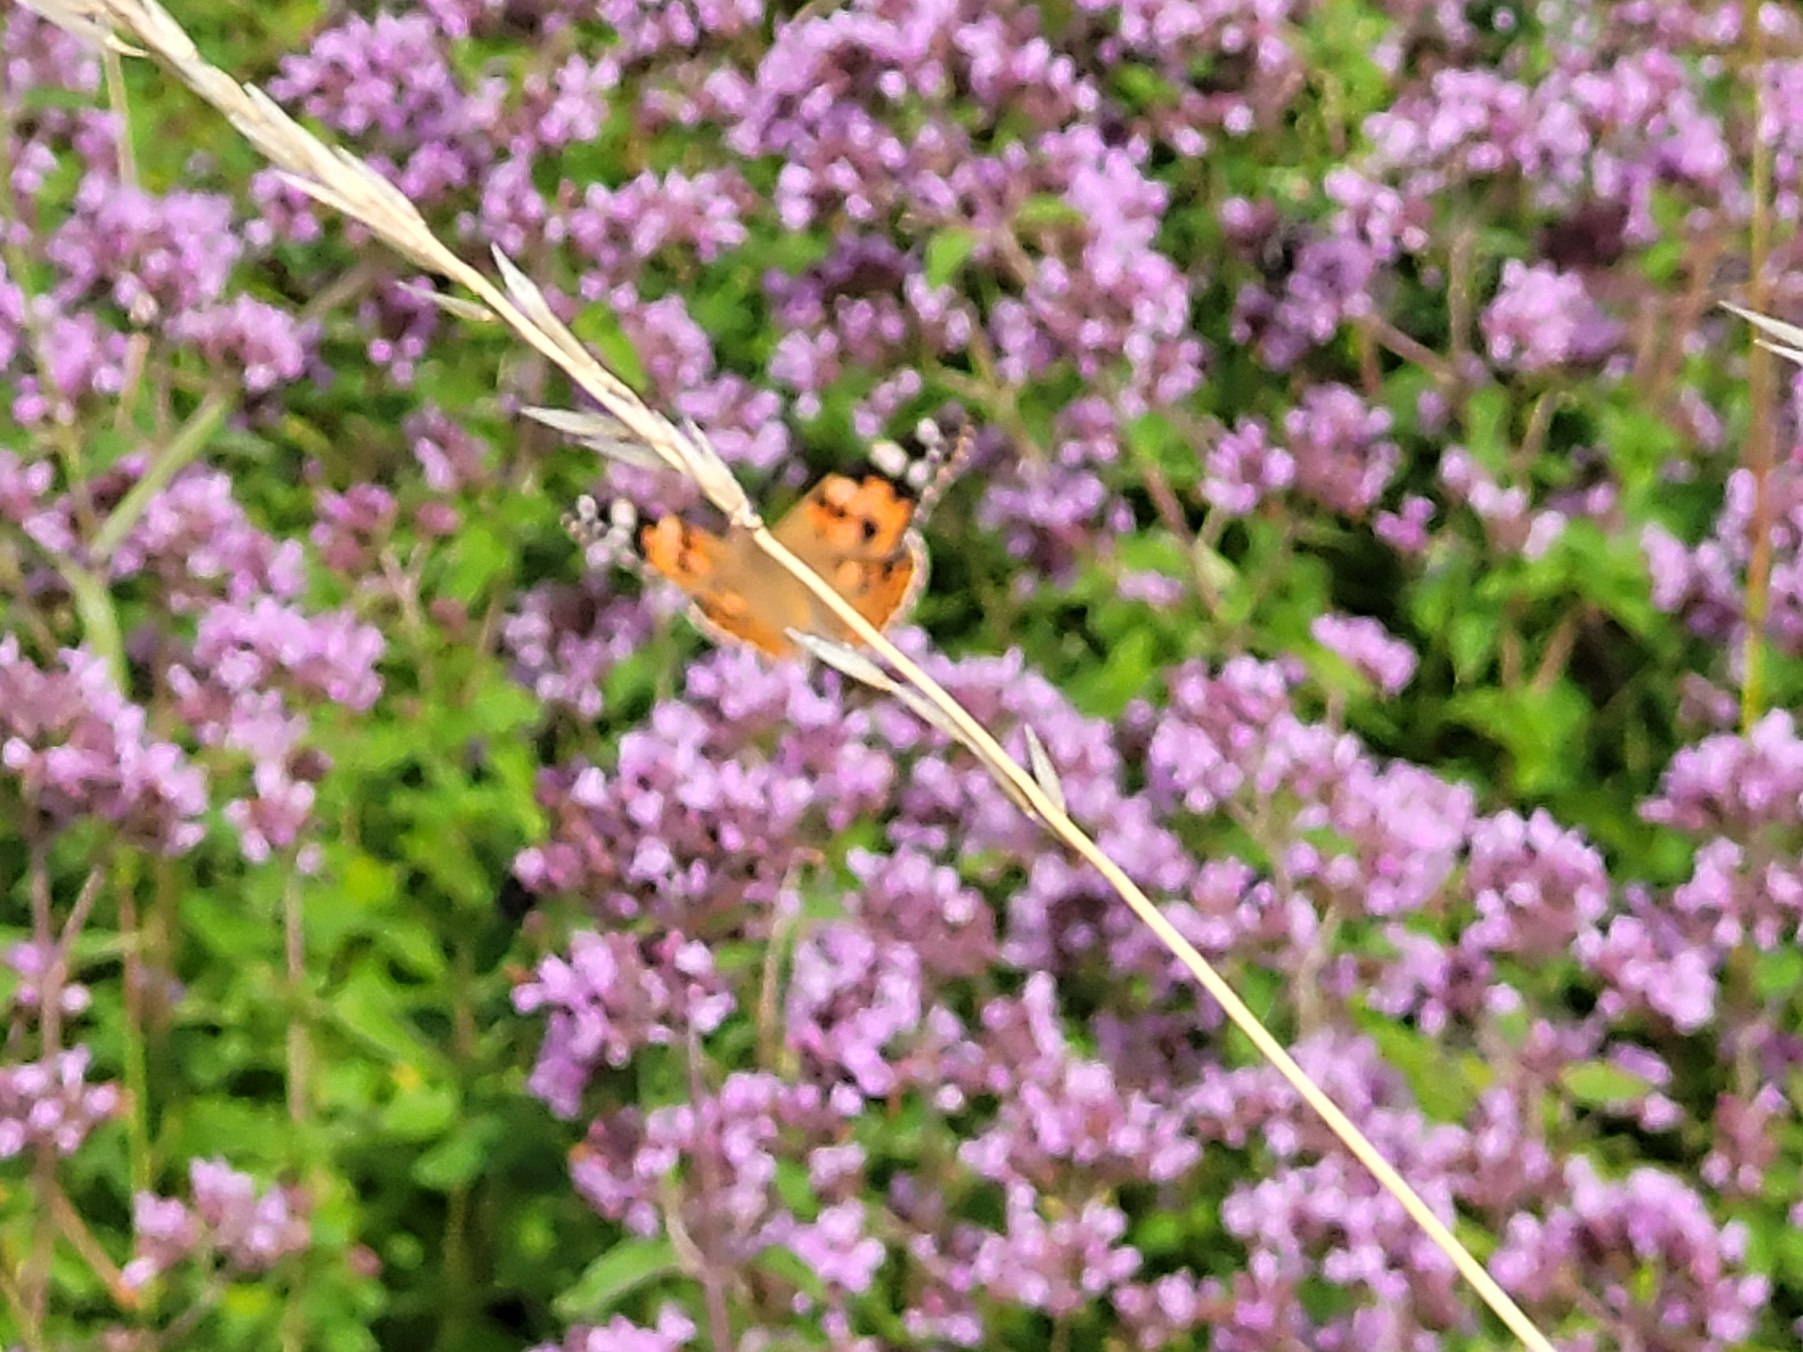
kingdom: Animalia
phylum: Arthropoda
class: Insecta
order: Lepidoptera
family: Nymphalidae
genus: Vanessa
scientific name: Vanessa cardui
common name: Tidselsommerfugl
